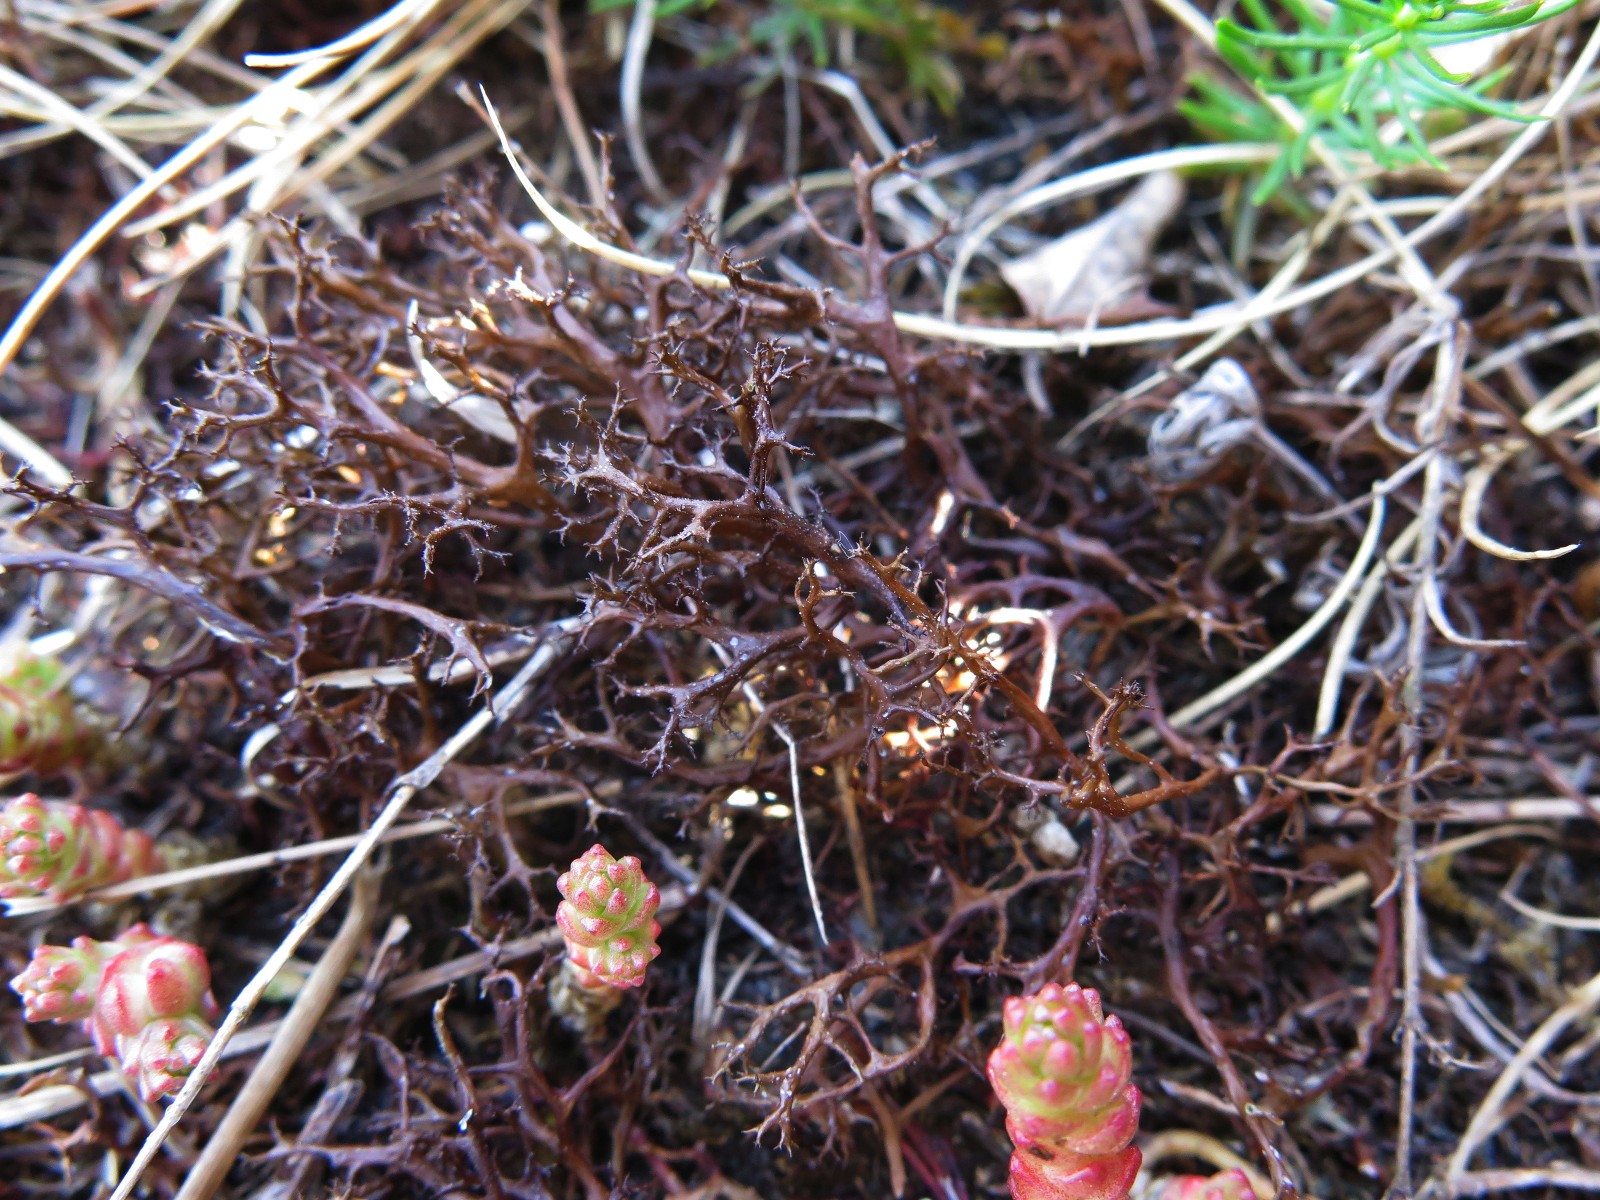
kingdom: Fungi
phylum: Ascomycota
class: Lecanoromycetes
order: Lecanorales
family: Parmeliaceae
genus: Cetraria
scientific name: Cetraria aculeata
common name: grubet tjørnelav
